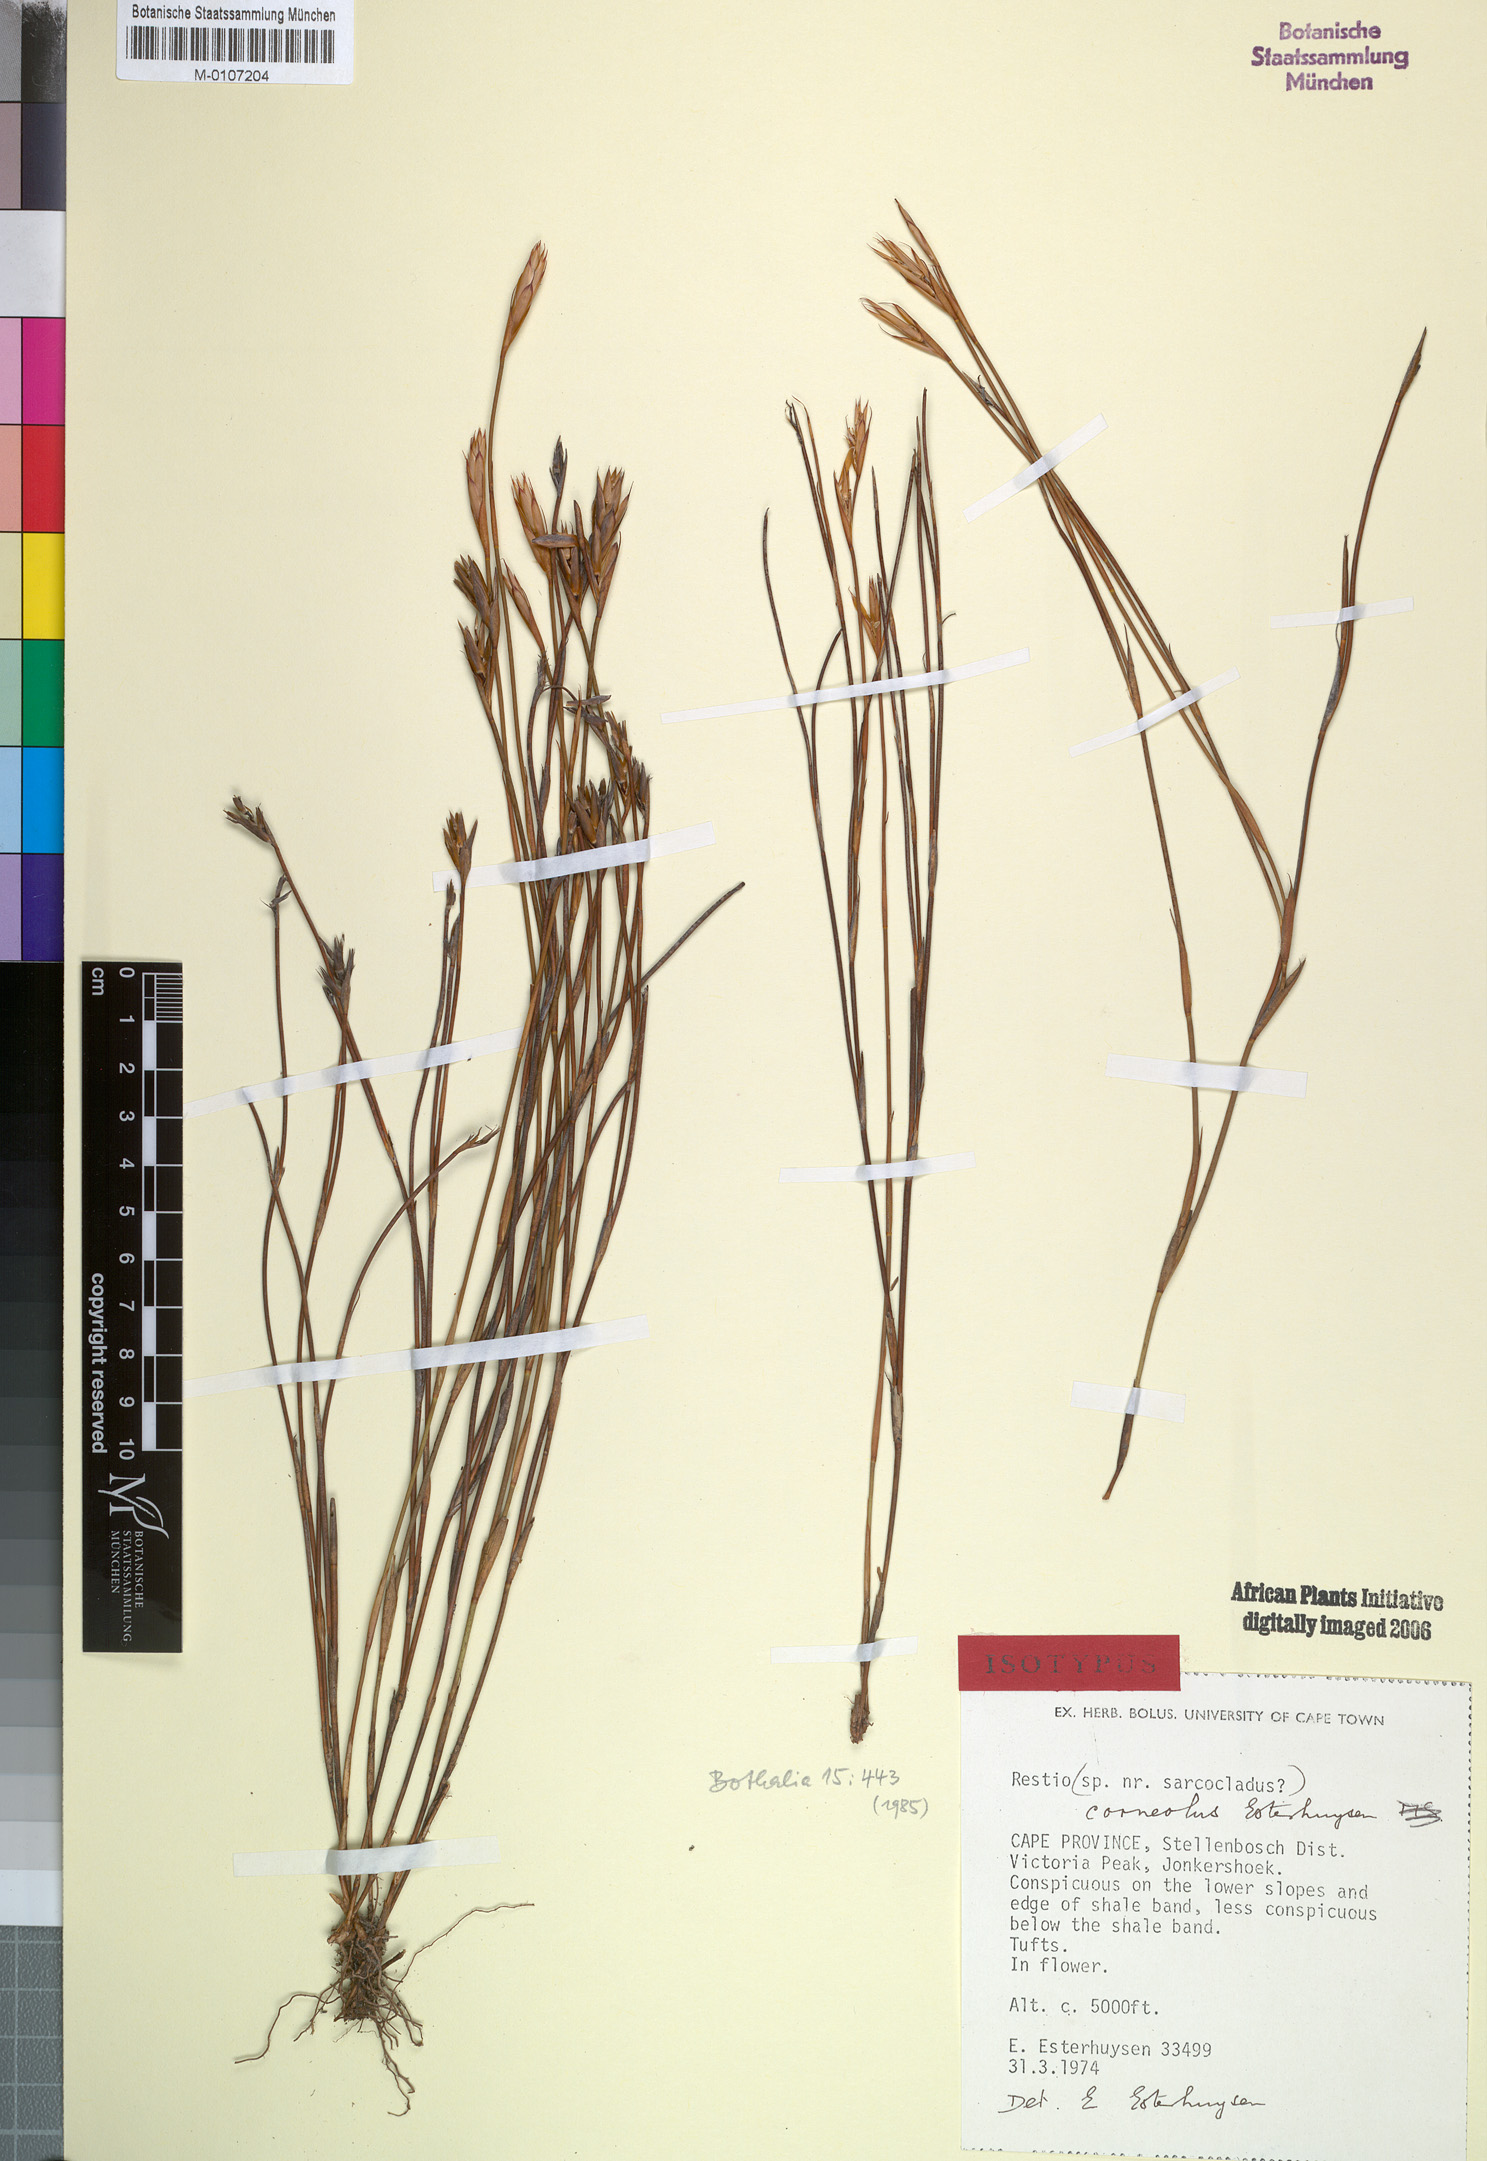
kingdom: Plantae
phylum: Tracheophyta
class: Liliopsida
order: Poales
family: Restionaceae
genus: Restio
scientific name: Restio corneolus
